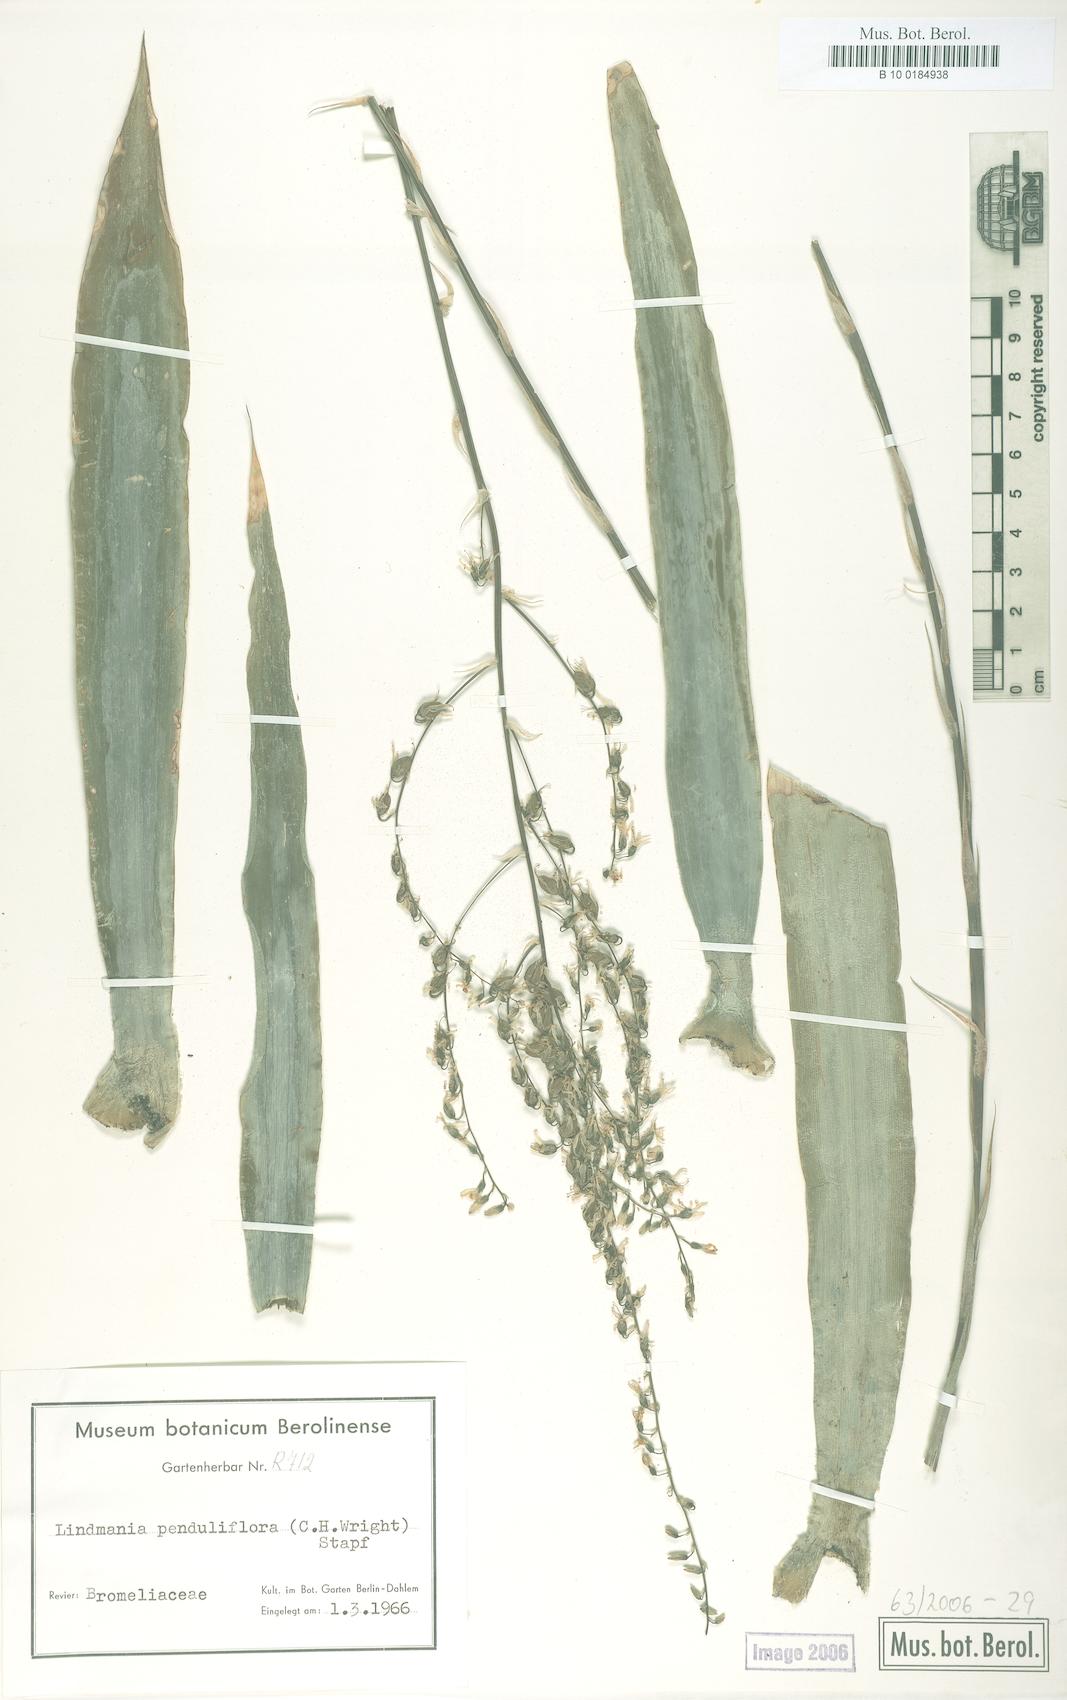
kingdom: Plantae
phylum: Tracheophyta
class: Liliopsida
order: Poales
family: Bromeliaceae
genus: Fosterella
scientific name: Fosterella penduliflora
